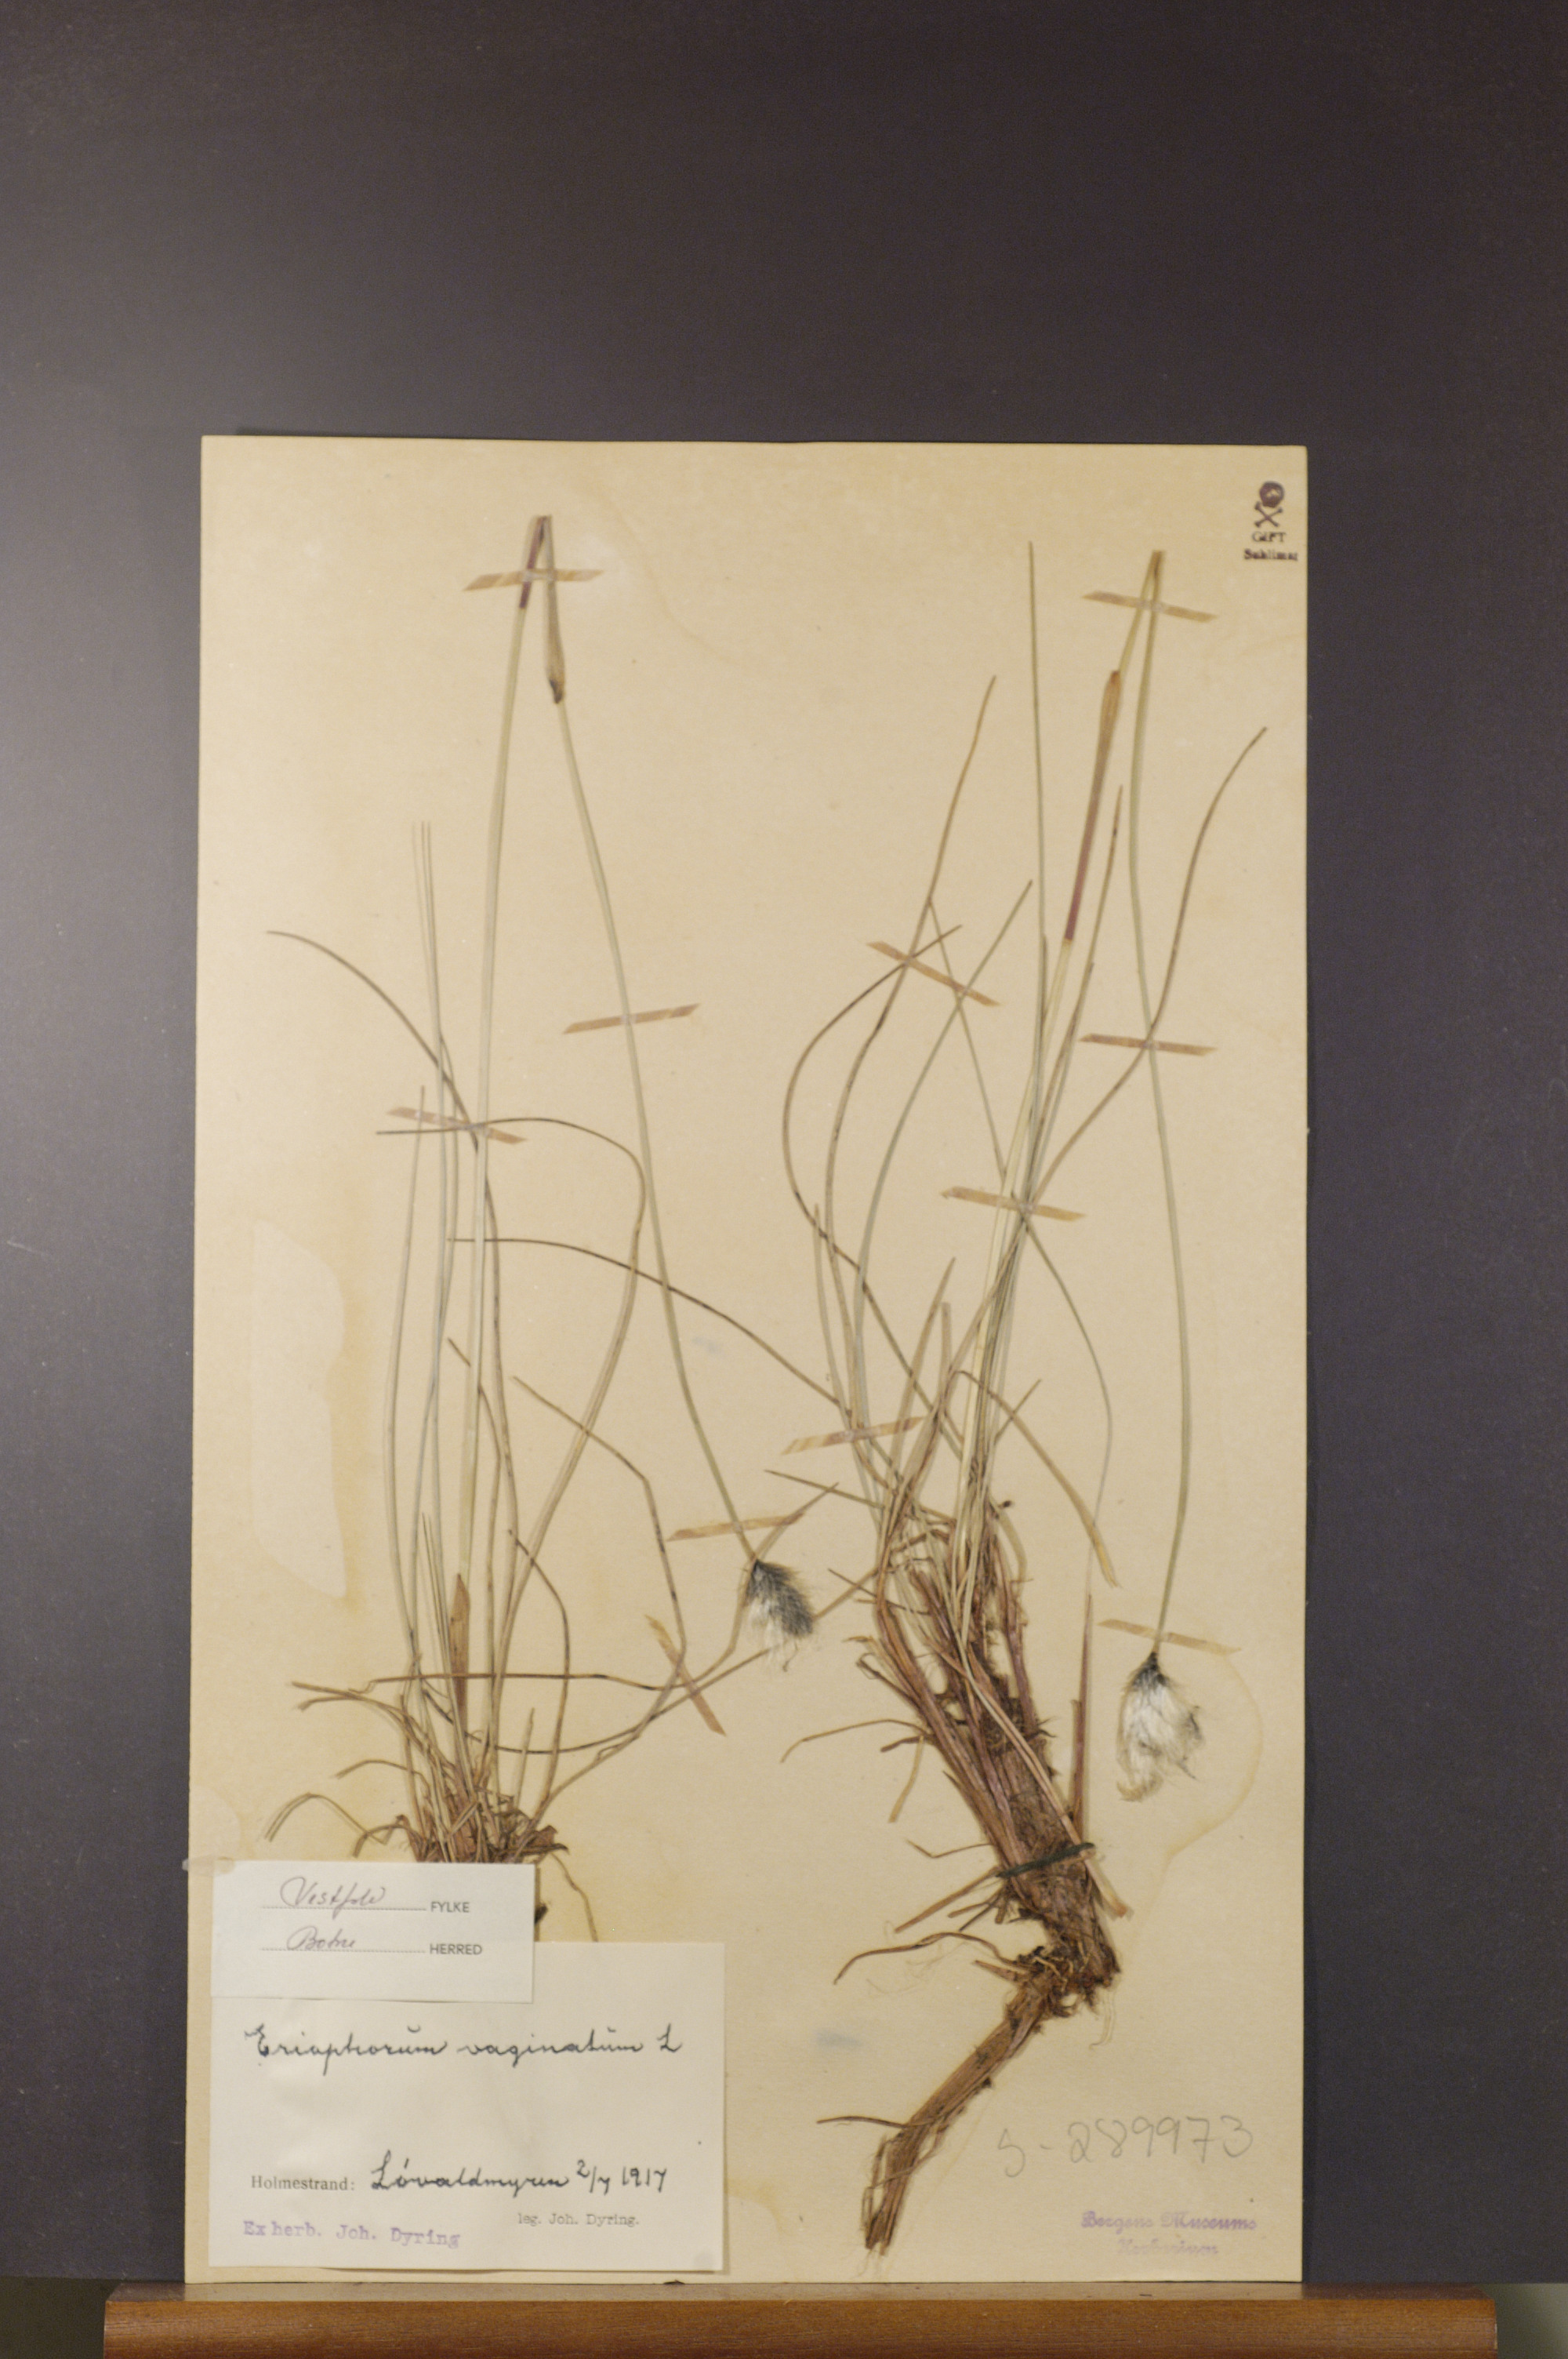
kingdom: Plantae
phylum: Tracheophyta
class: Liliopsida
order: Poales
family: Cyperaceae
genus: Eriophorum
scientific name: Eriophorum vaginatum
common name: Hare's-tail cottongrass
